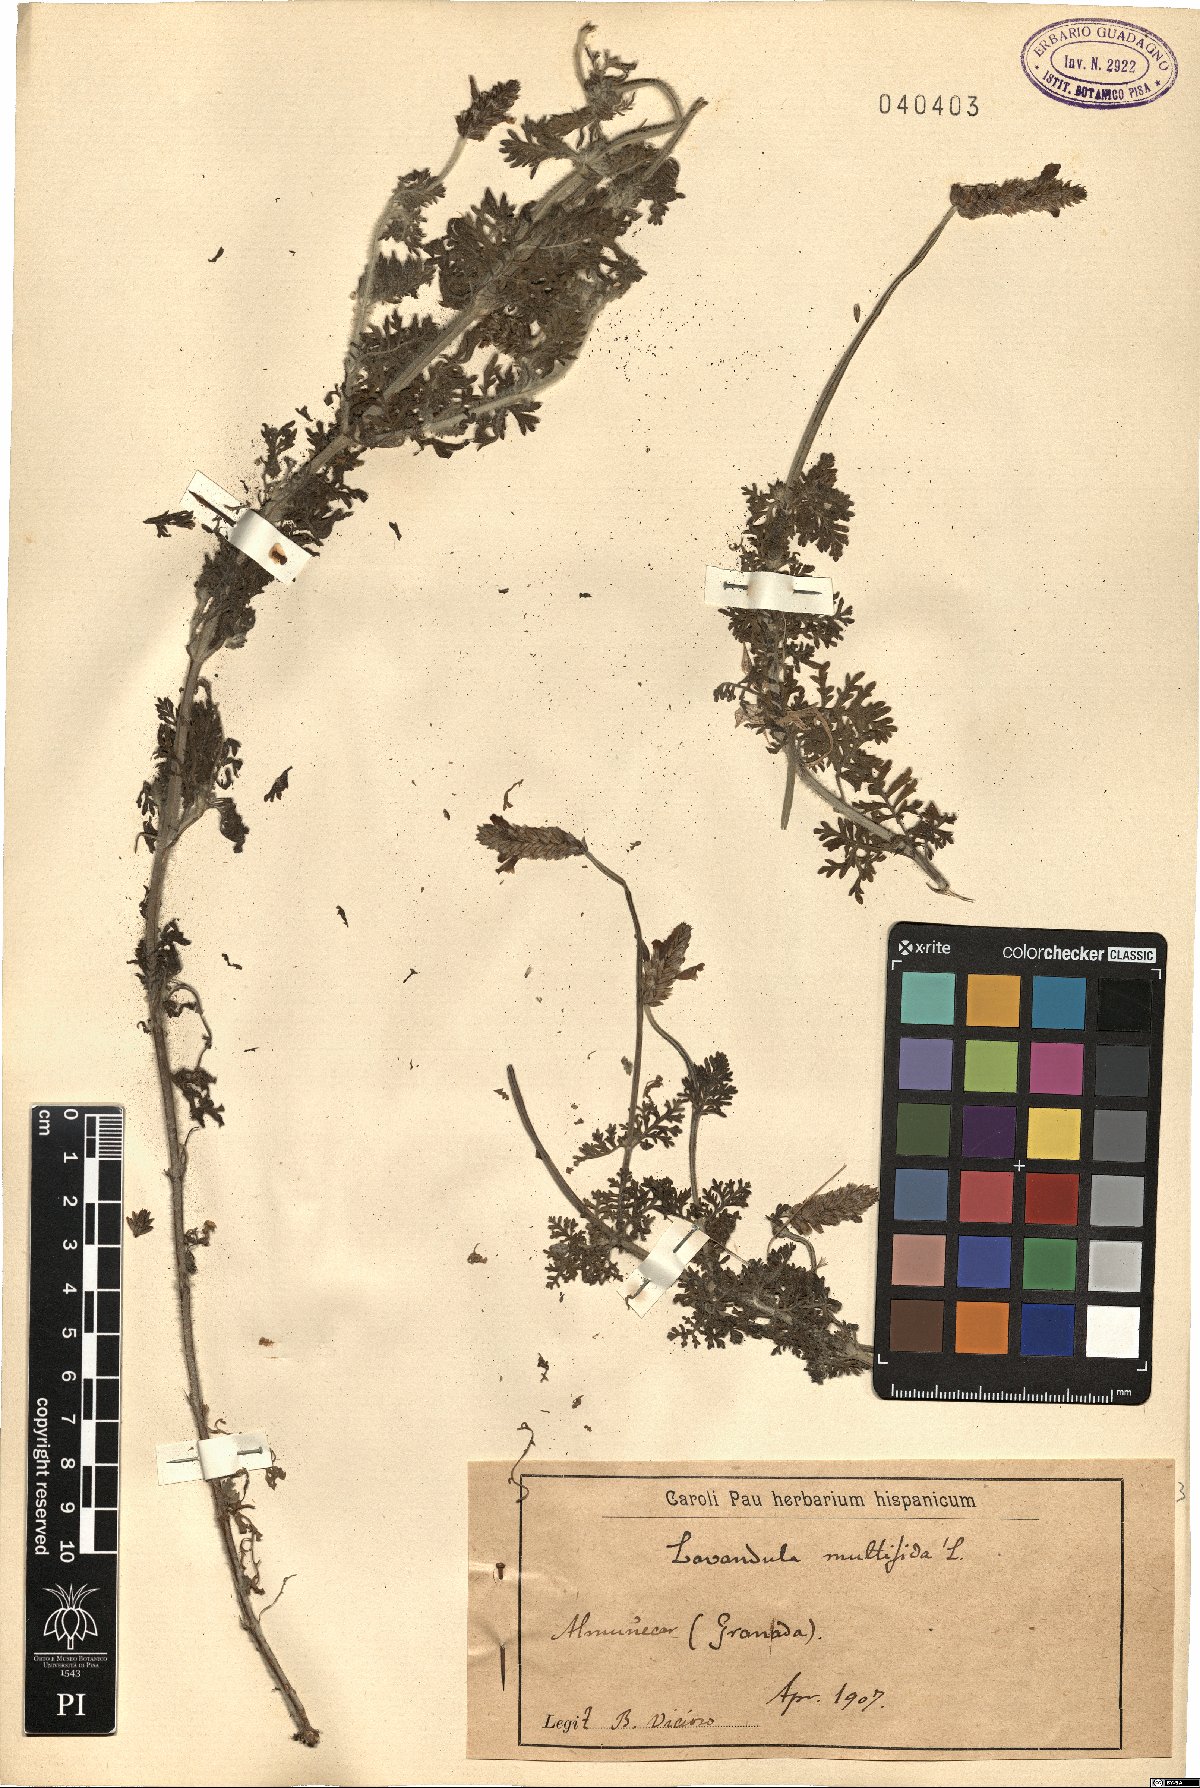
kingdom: Plantae
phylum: Tracheophyta
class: Magnoliopsida
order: Lamiales
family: Lamiaceae
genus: Lavandula
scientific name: Lavandula multifida
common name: Fern-leaf lavender
